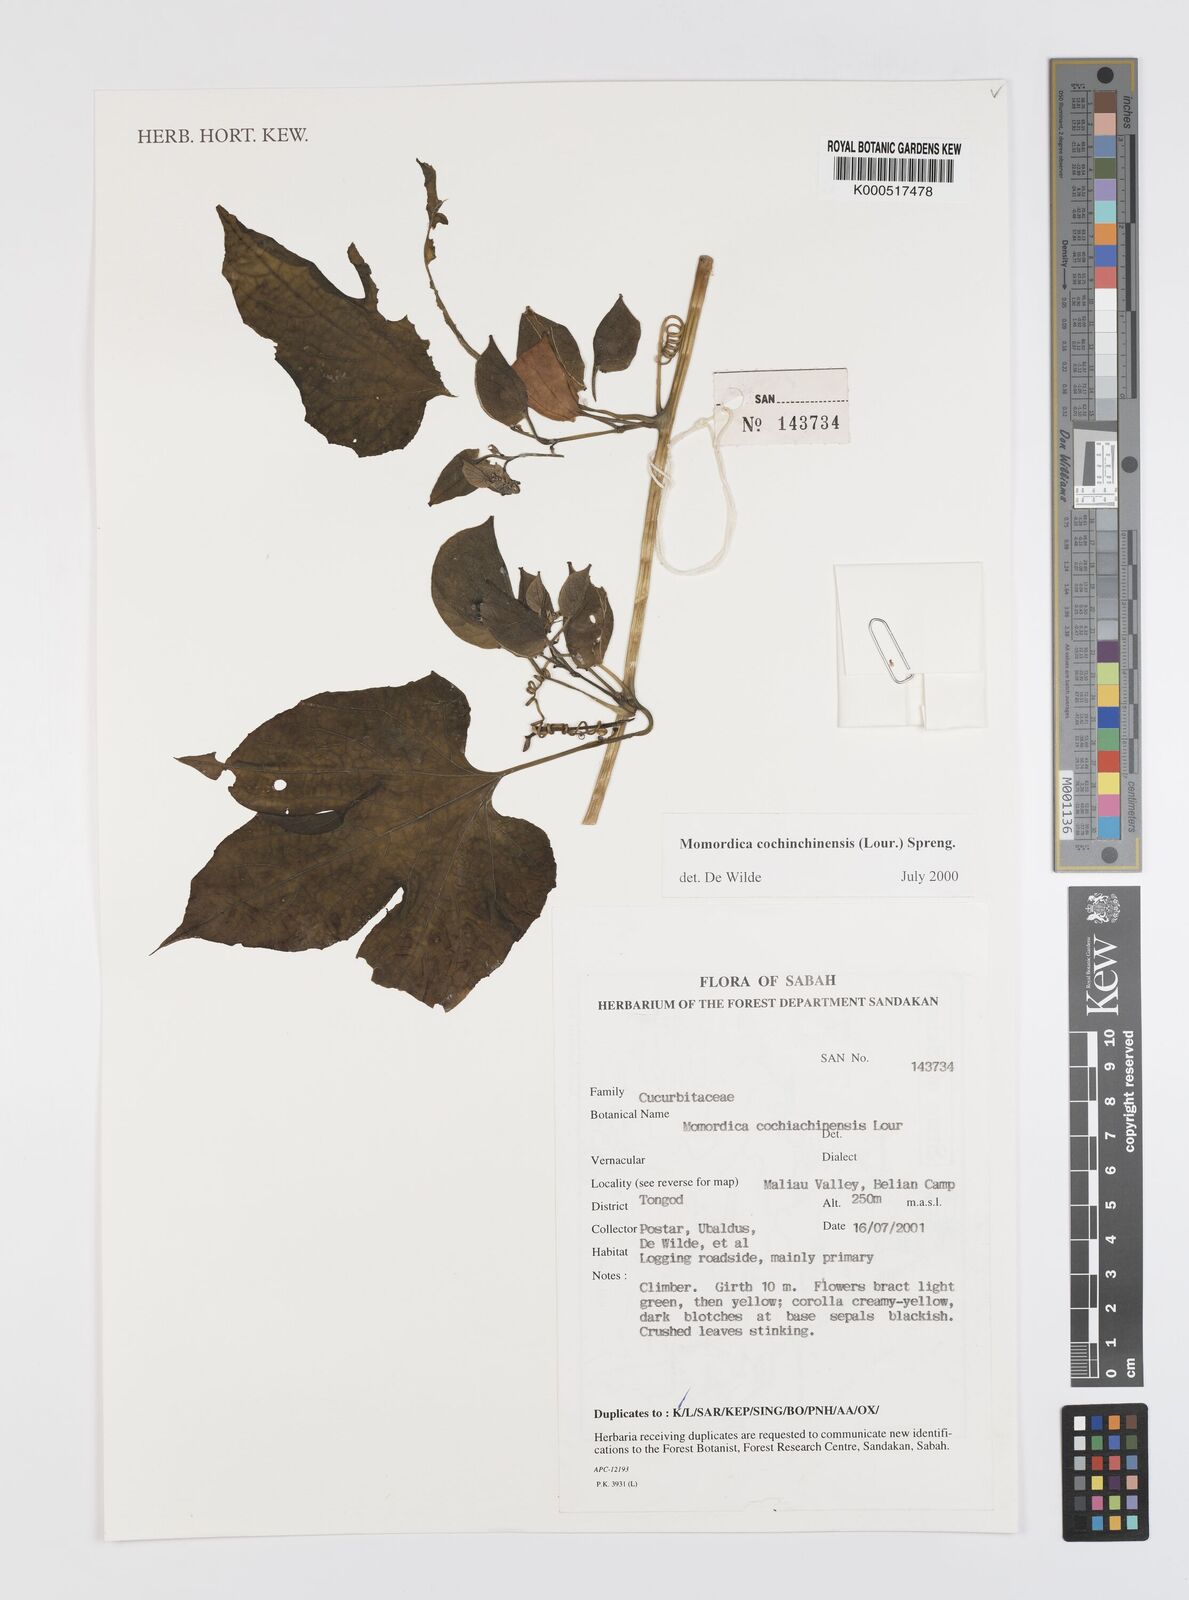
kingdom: Plantae
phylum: Tracheophyta
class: Magnoliopsida
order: Cucurbitales
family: Cucurbitaceae
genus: Momordica
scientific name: Momordica cochinchinensis
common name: Chinese bitter-cucumber
